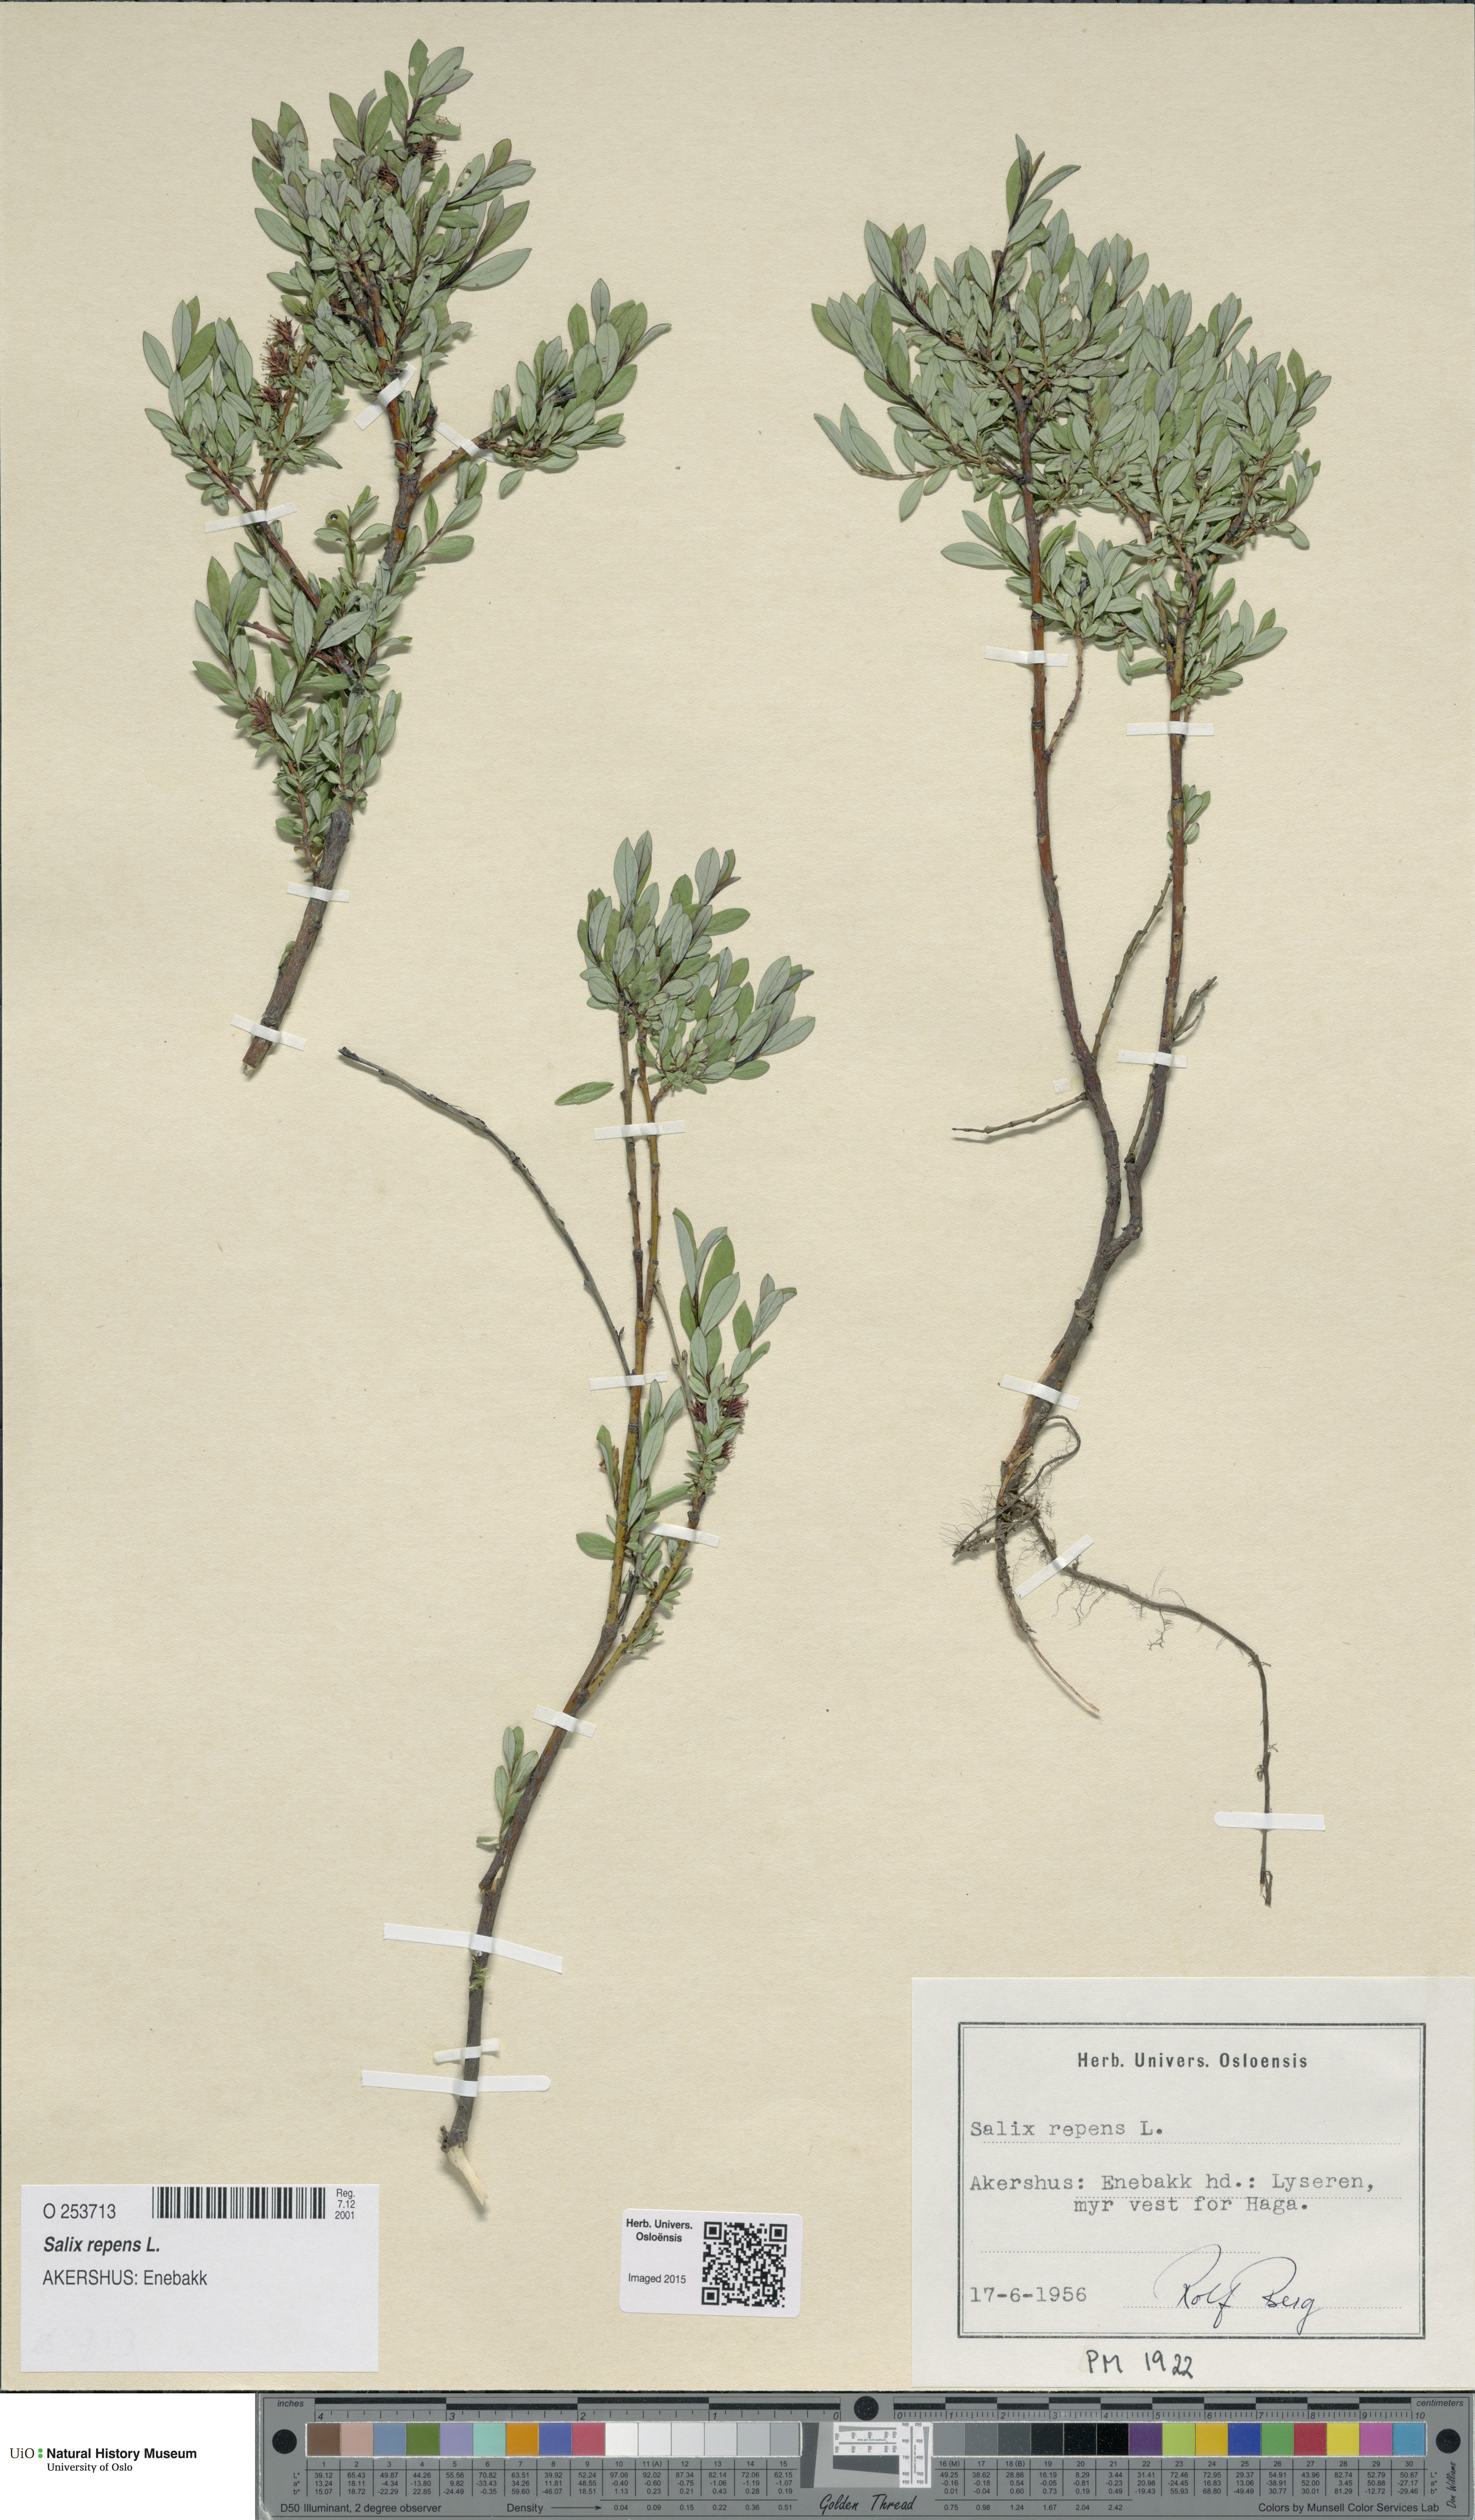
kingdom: Plantae
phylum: Tracheophyta
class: Magnoliopsida
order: Malpighiales
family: Salicaceae
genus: Salix
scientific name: Salix repens
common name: Creeping willow
